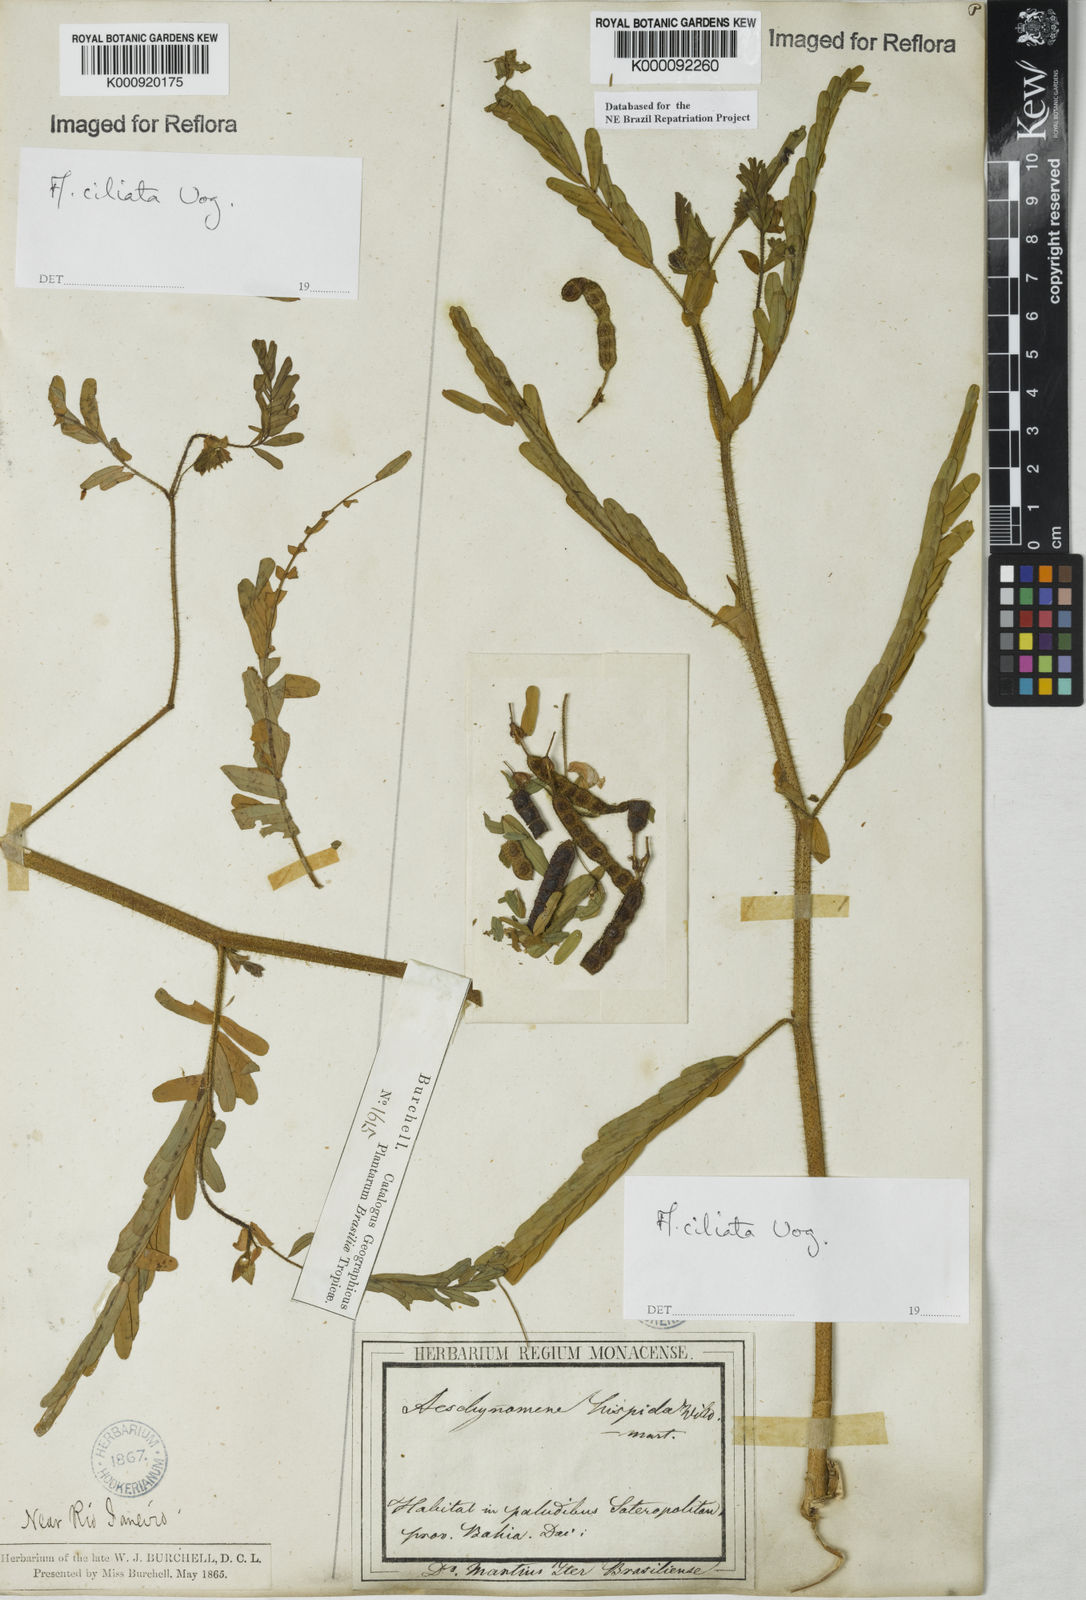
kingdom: Plantae
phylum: Tracheophyta
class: Magnoliopsida
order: Fabales
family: Fabaceae
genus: Aeschynomene
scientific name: Aeschynomene ciliata
